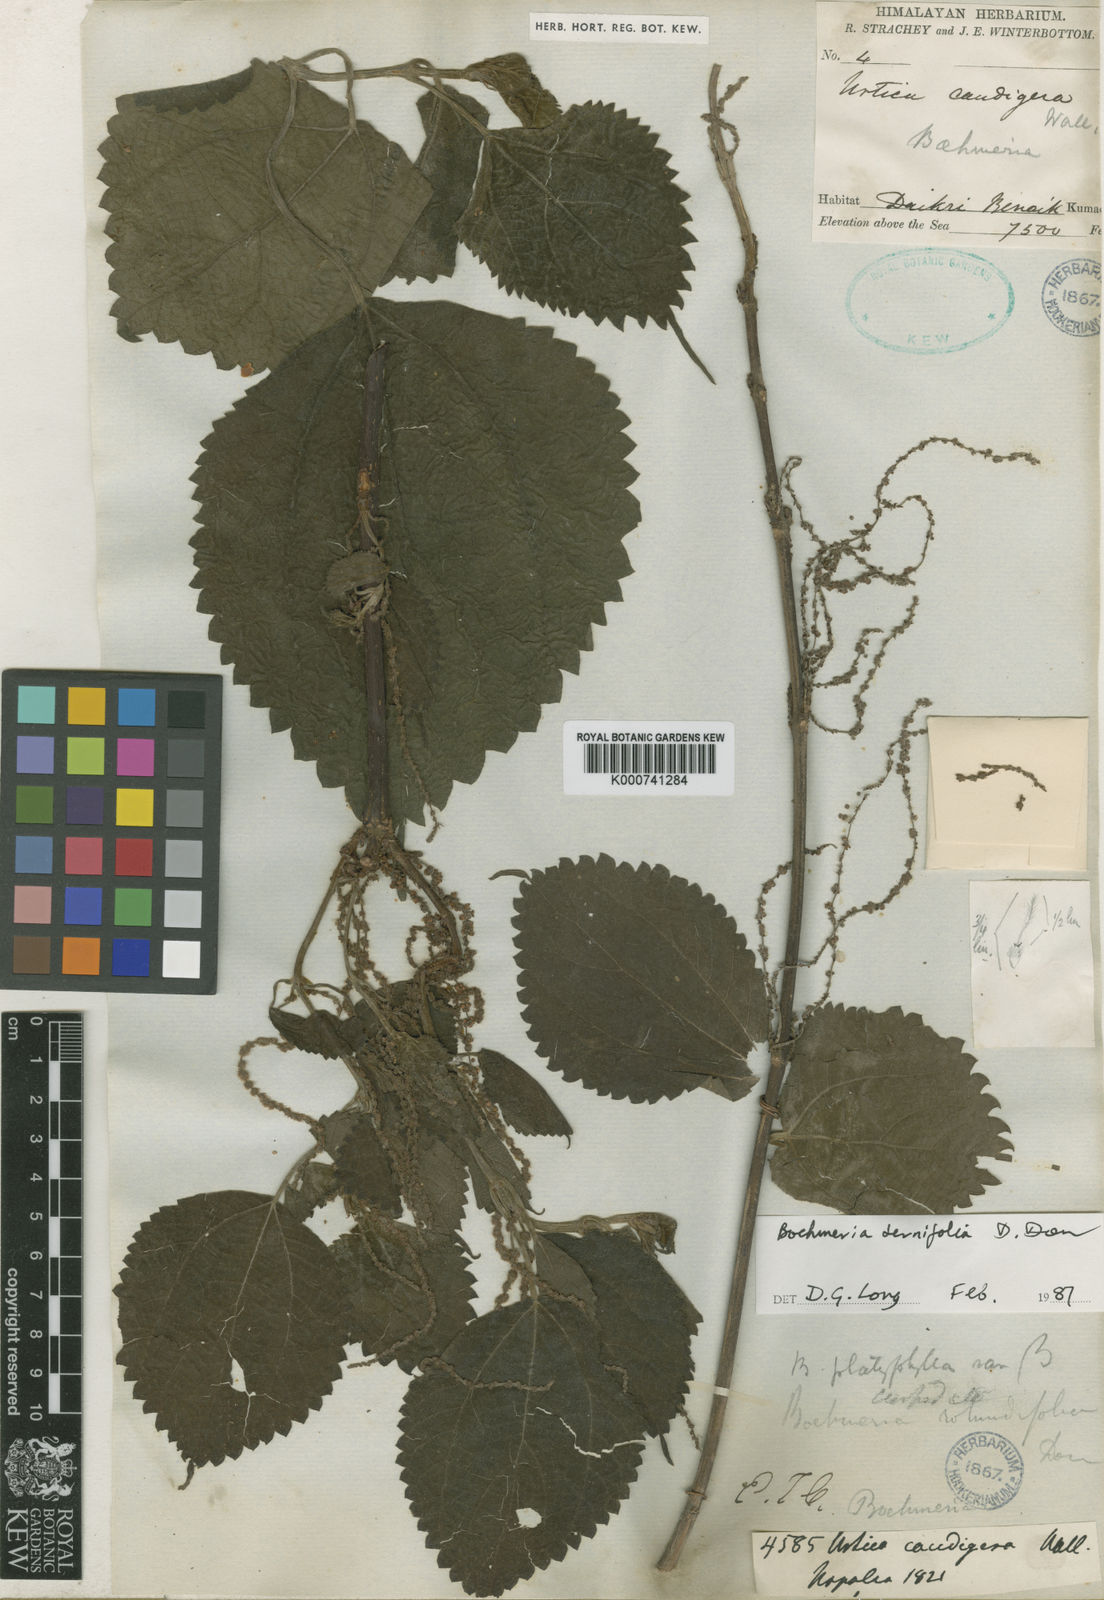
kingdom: Plantae
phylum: Tracheophyta
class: Magnoliopsida
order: Rosales
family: Urticaceae
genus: Boehmeria
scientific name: Boehmeria ternifolia
